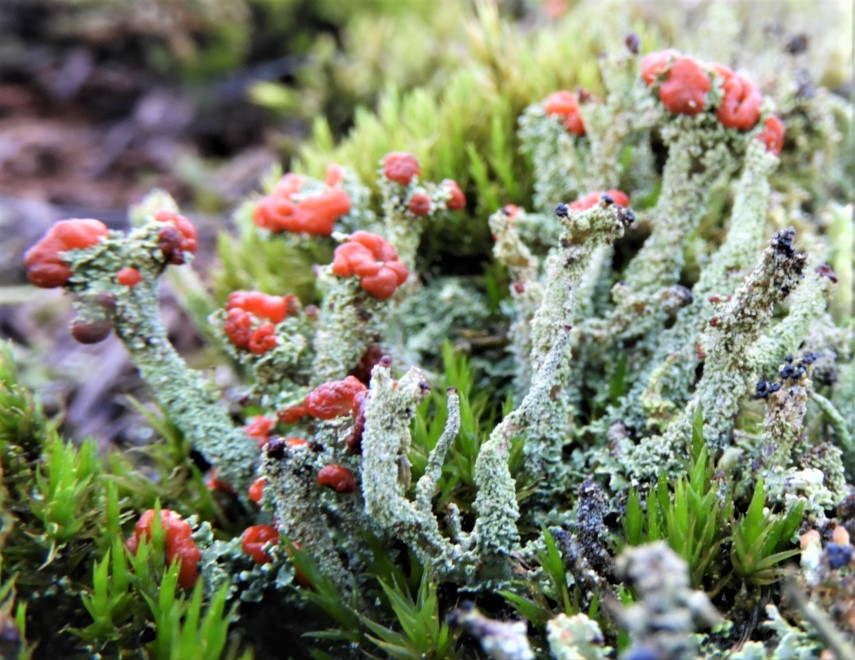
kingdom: Fungi
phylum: Ascomycota
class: Lecanoromycetes
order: Lecanorales
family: Cladoniaceae
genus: Cladonia
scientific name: Cladonia floerkeana
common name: lakrød bægerlav
